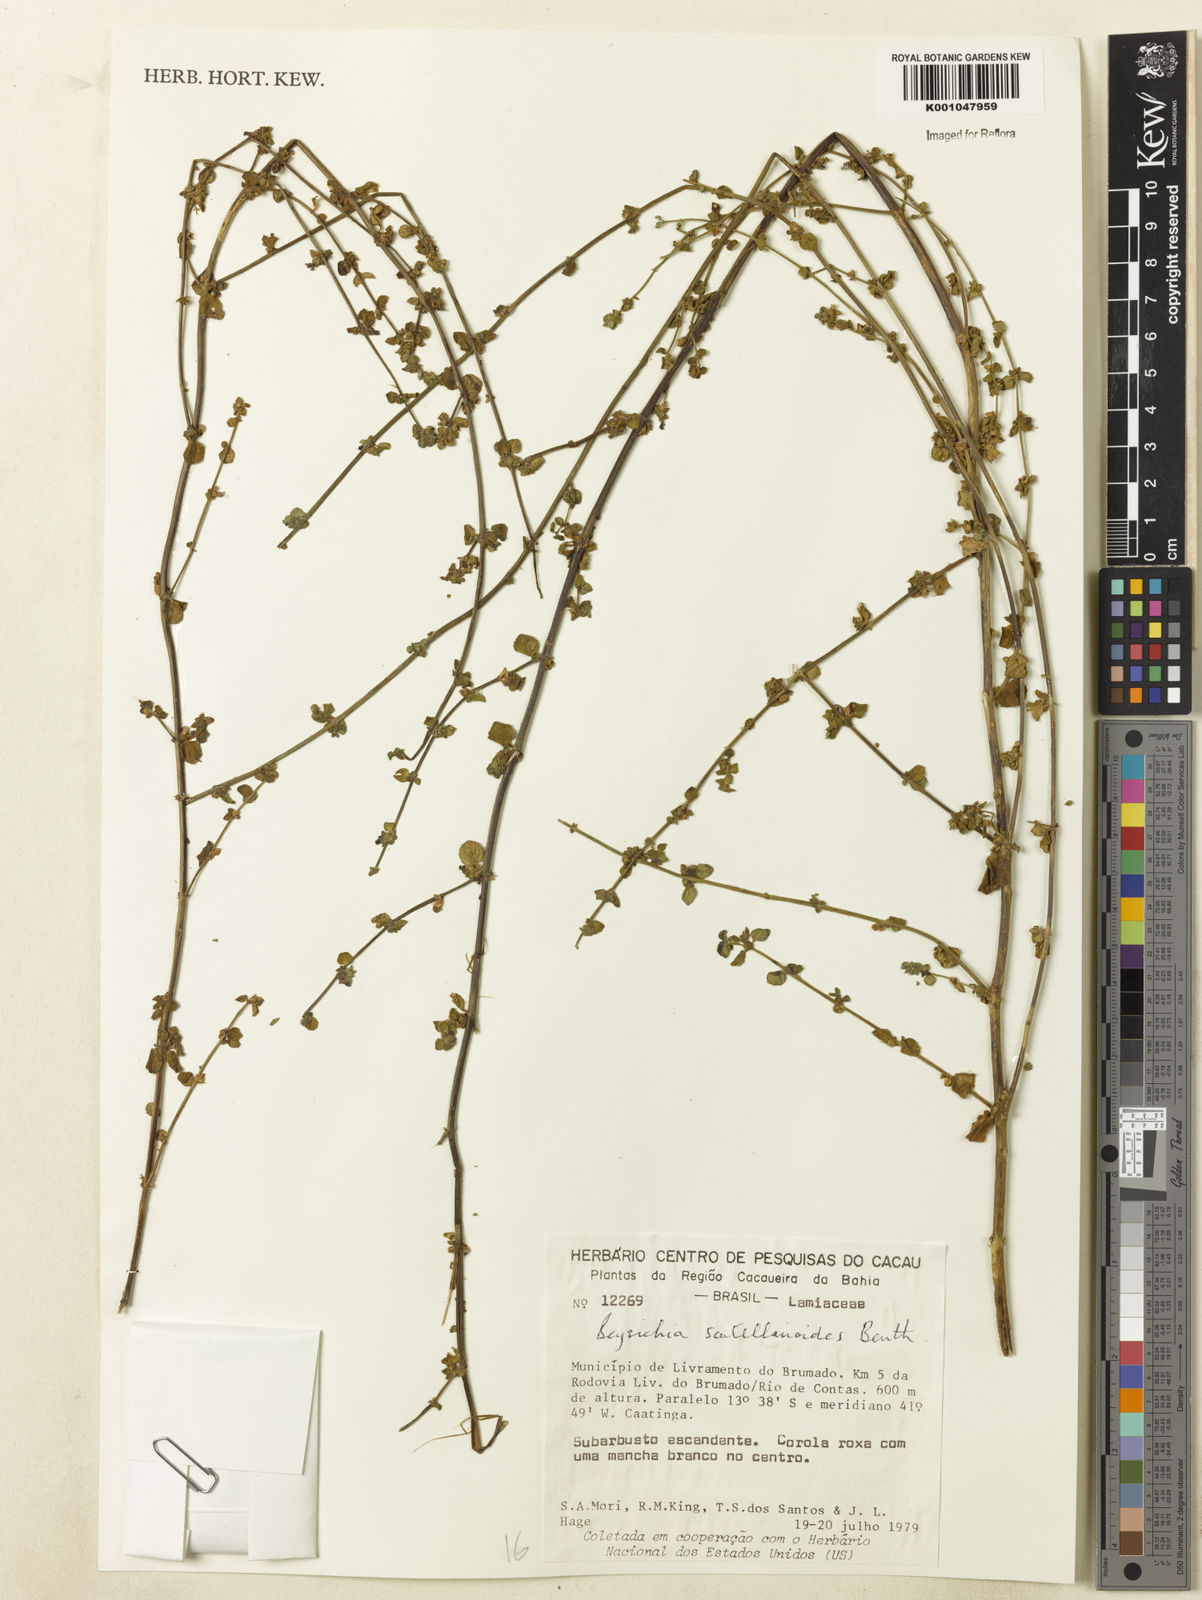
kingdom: Plantae
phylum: Tracheophyta
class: Magnoliopsida
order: Lamiales
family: Plantaginaceae
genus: Matourea
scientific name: Matourea scutellarioides
